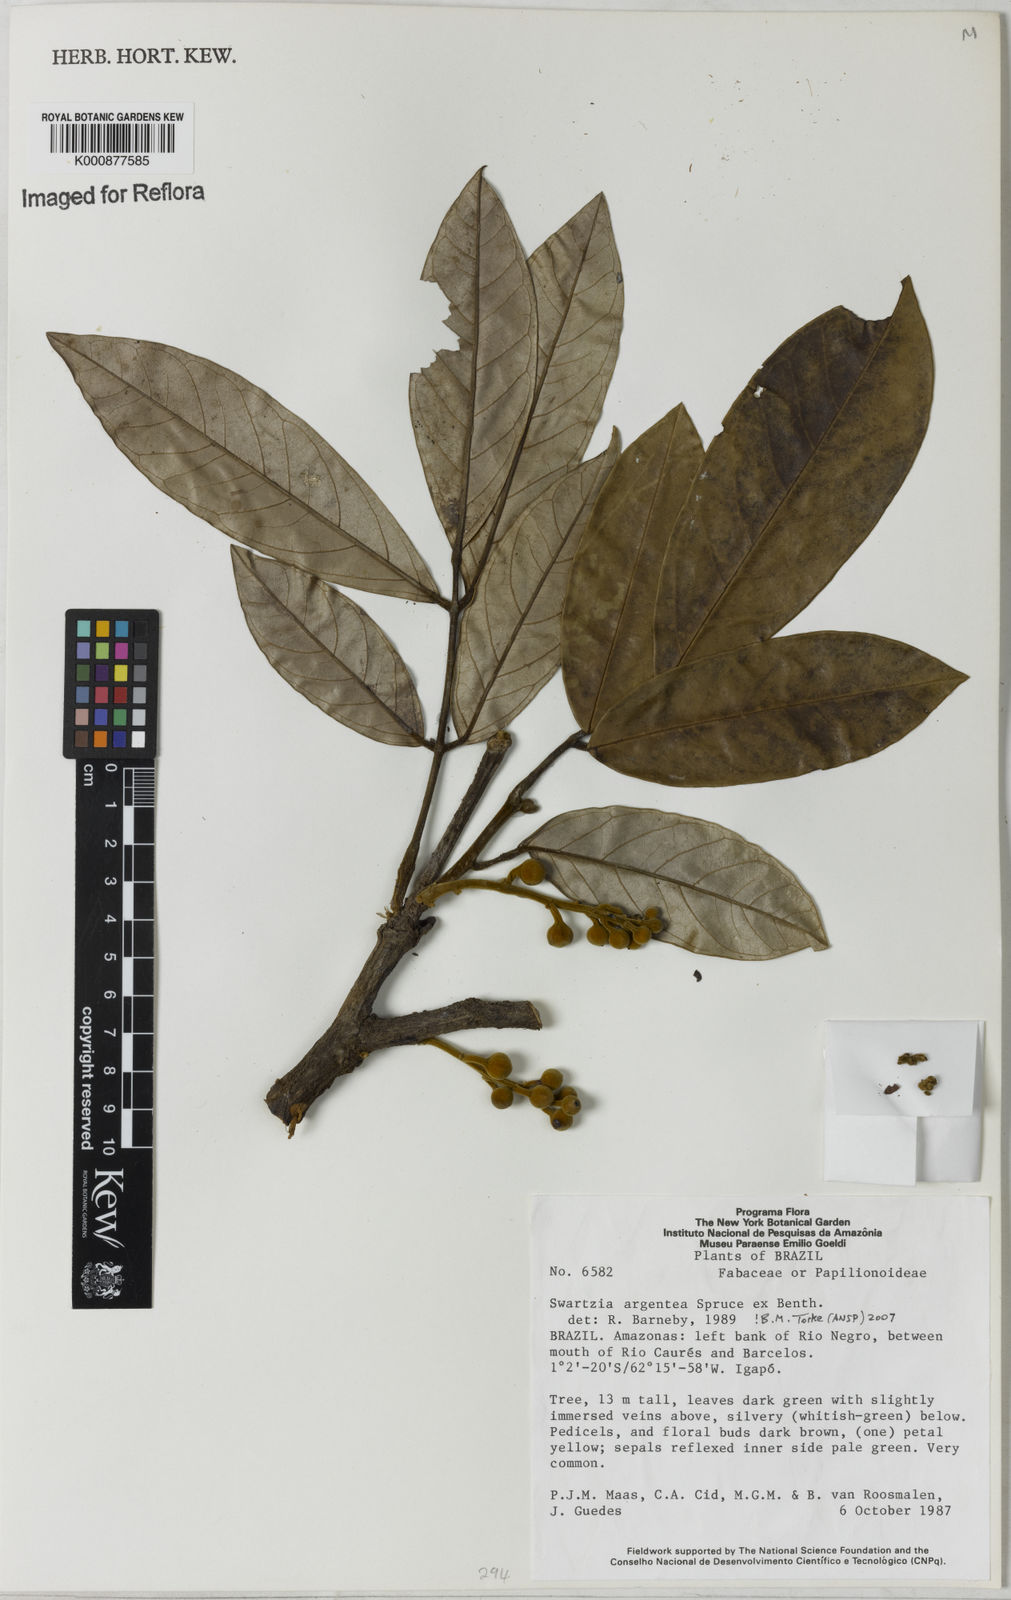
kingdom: Plantae
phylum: Tracheophyta
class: Magnoliopsida
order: Fabales
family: Fabaceae
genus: Swartzia
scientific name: Swartzia argentea
